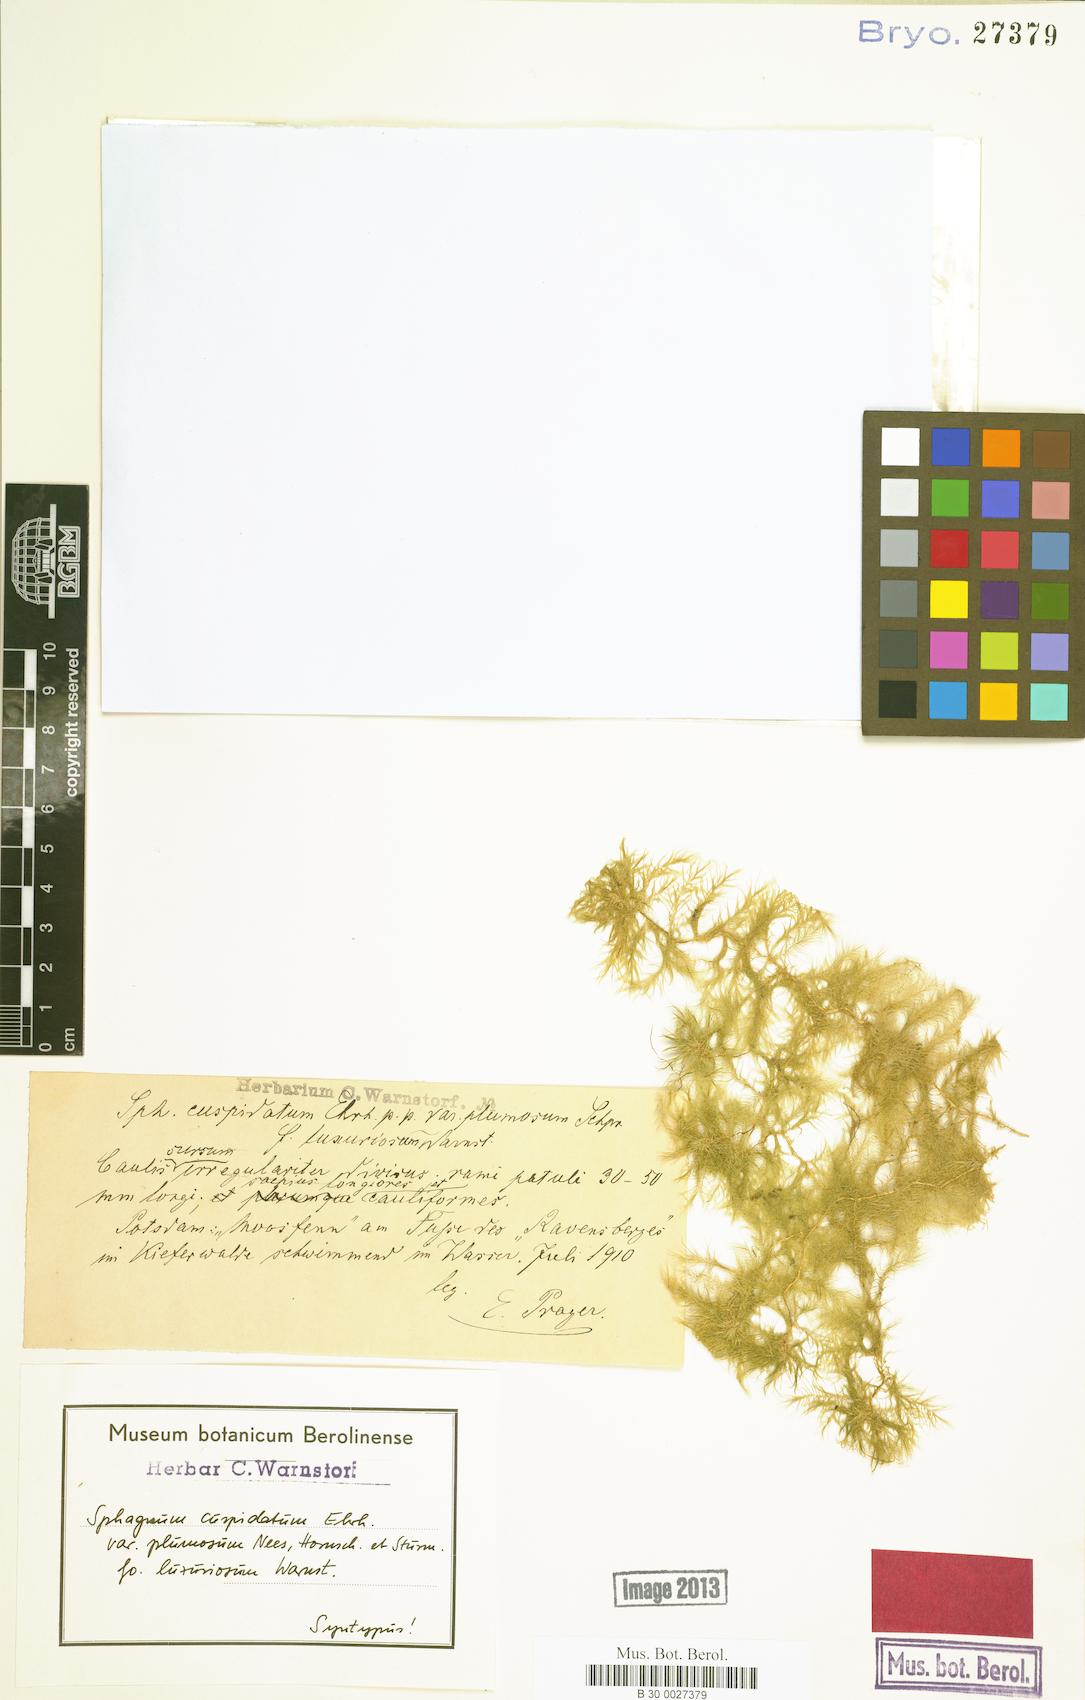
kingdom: Plantae
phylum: Bryophyta
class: Sphagnopsida
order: Sphagnales
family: Sphagnaceae
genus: Sphagnum
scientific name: Sphagnum cuspidatum
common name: Feathery peat moss
